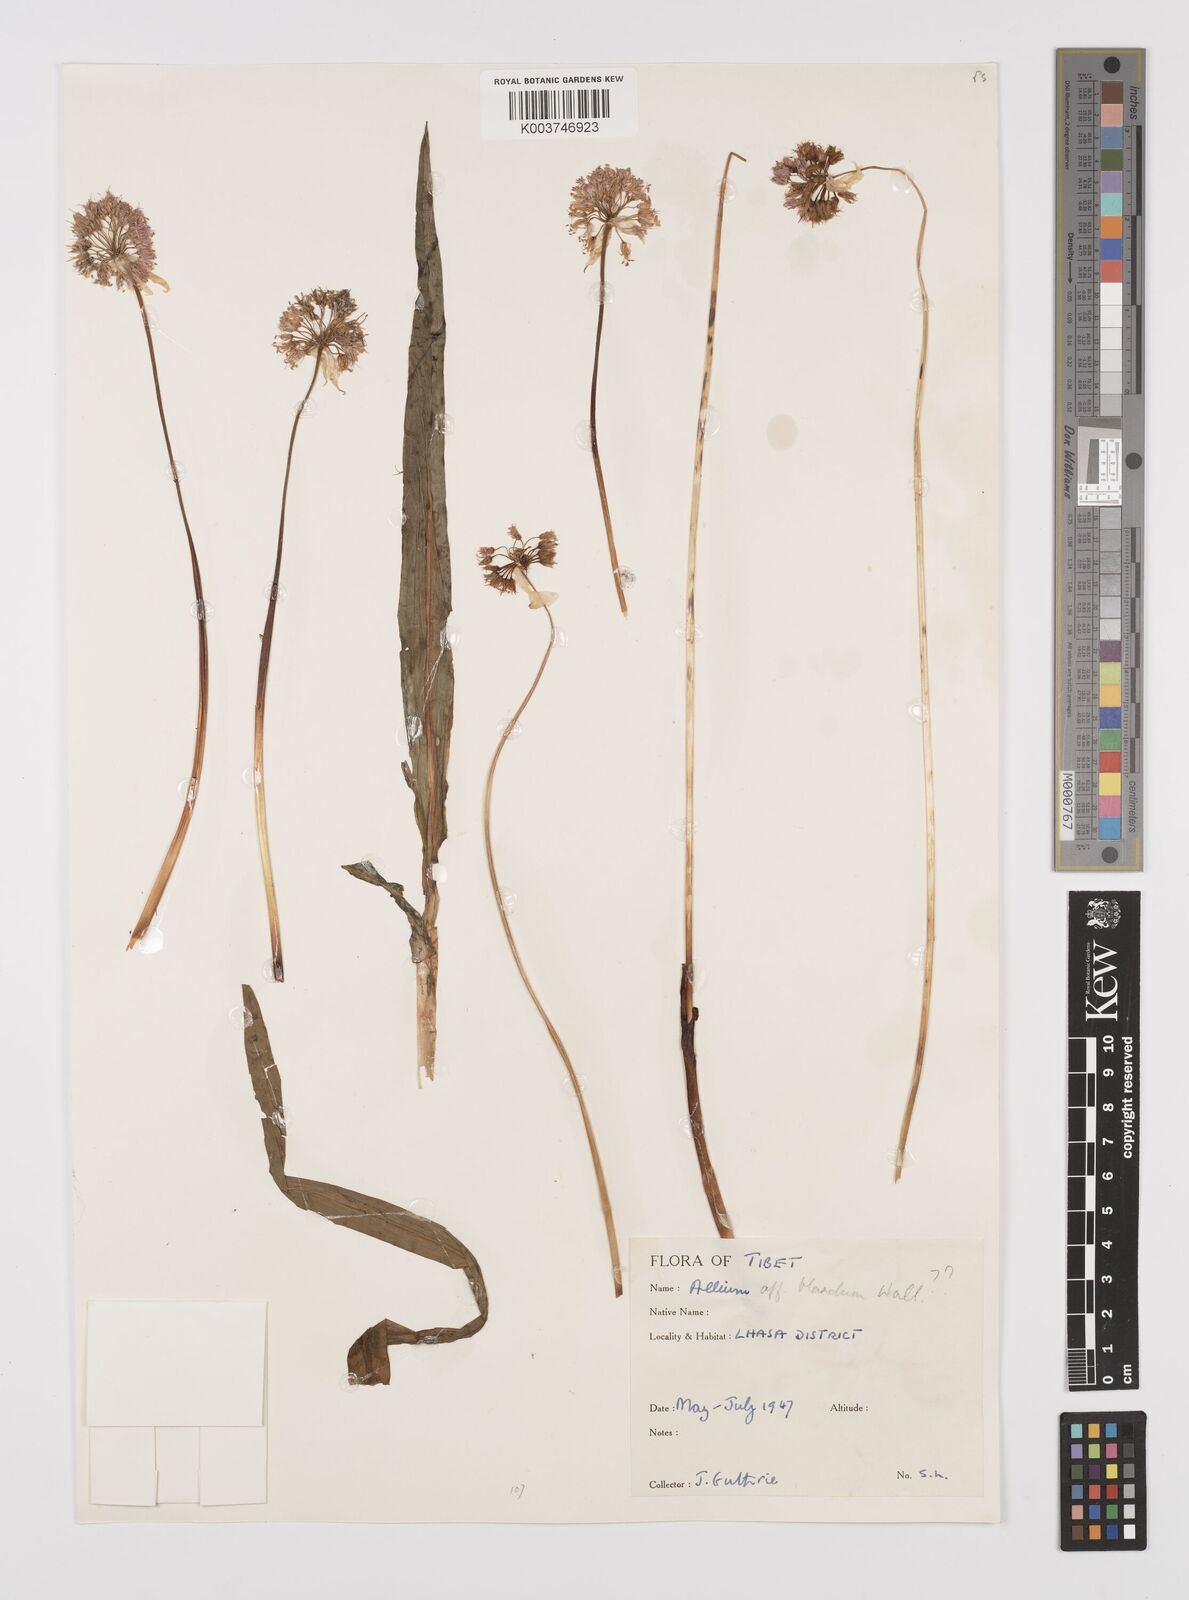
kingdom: Plantae
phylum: Tracheophyta
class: Liliopsida
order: Asparagales
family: Amaryllidaceae
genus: Allium
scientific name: Allium blandum
